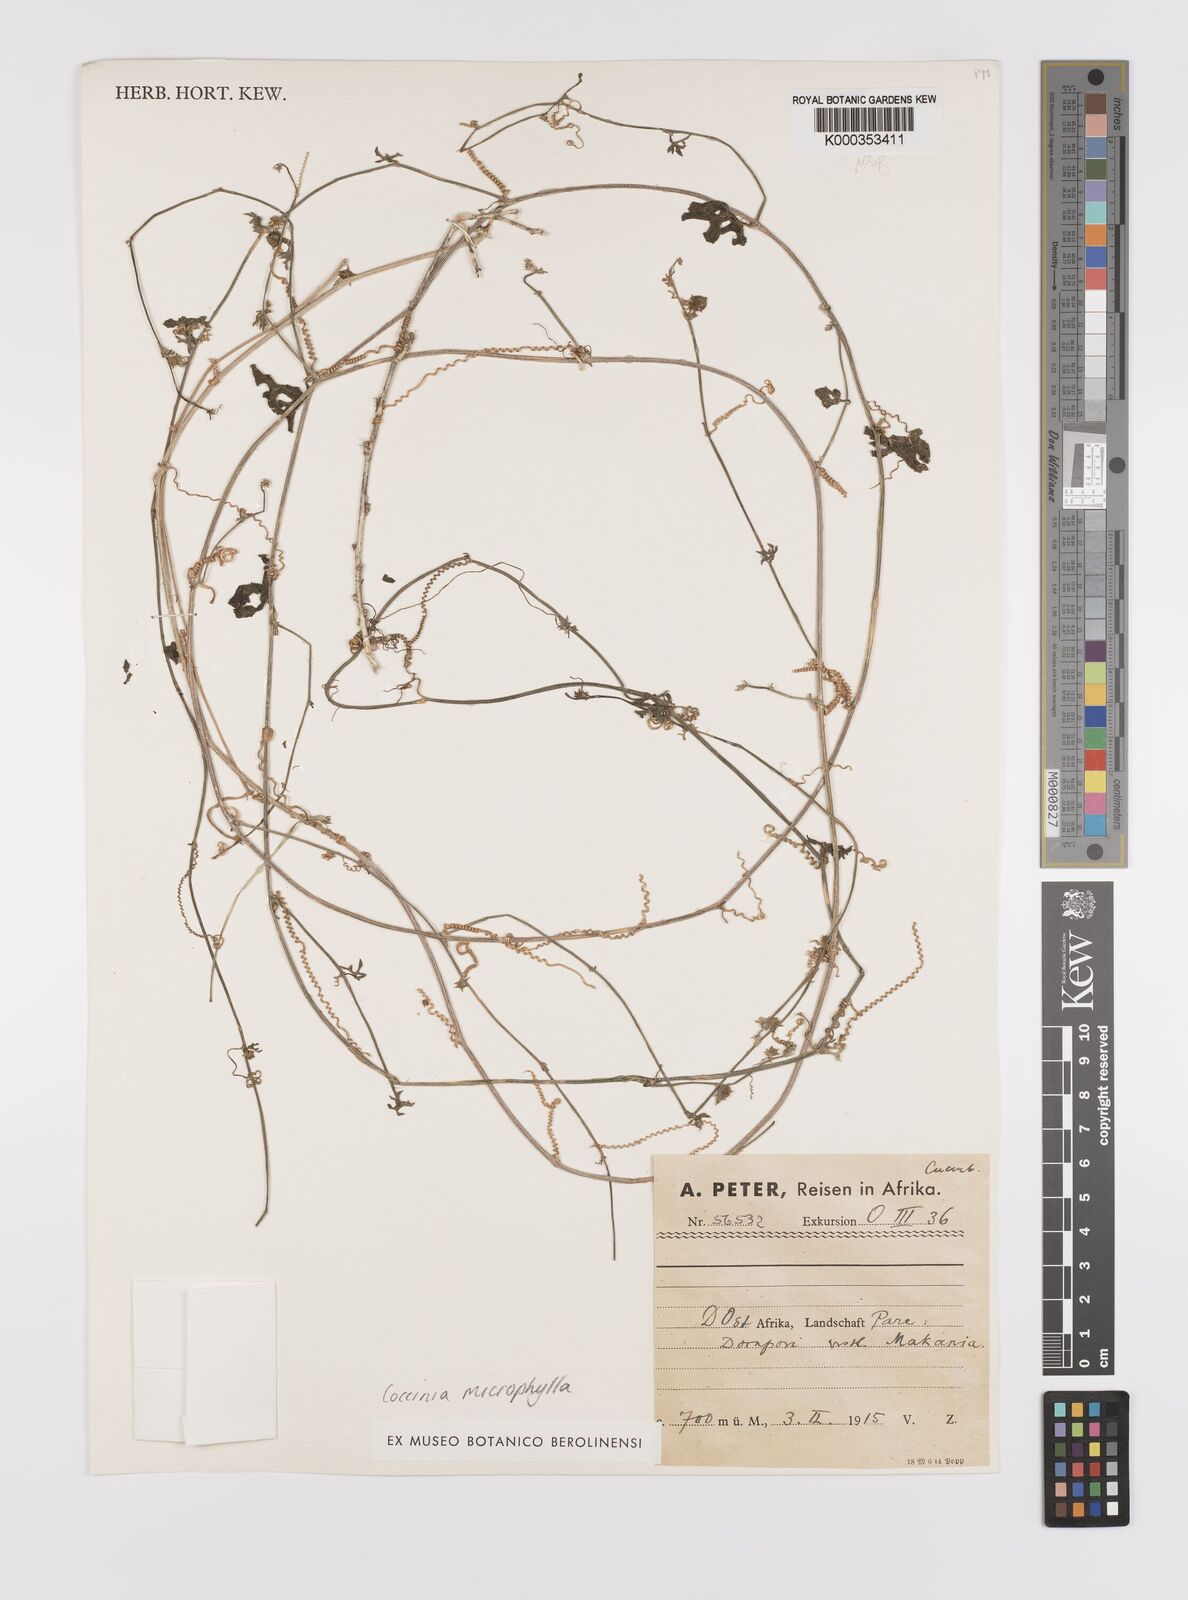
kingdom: Plantae
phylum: Tracheophyta
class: Magnoliopsida
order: Cucurbitales
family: Cucurbitaceae
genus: Coccinia
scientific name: Coccinia microphylla
